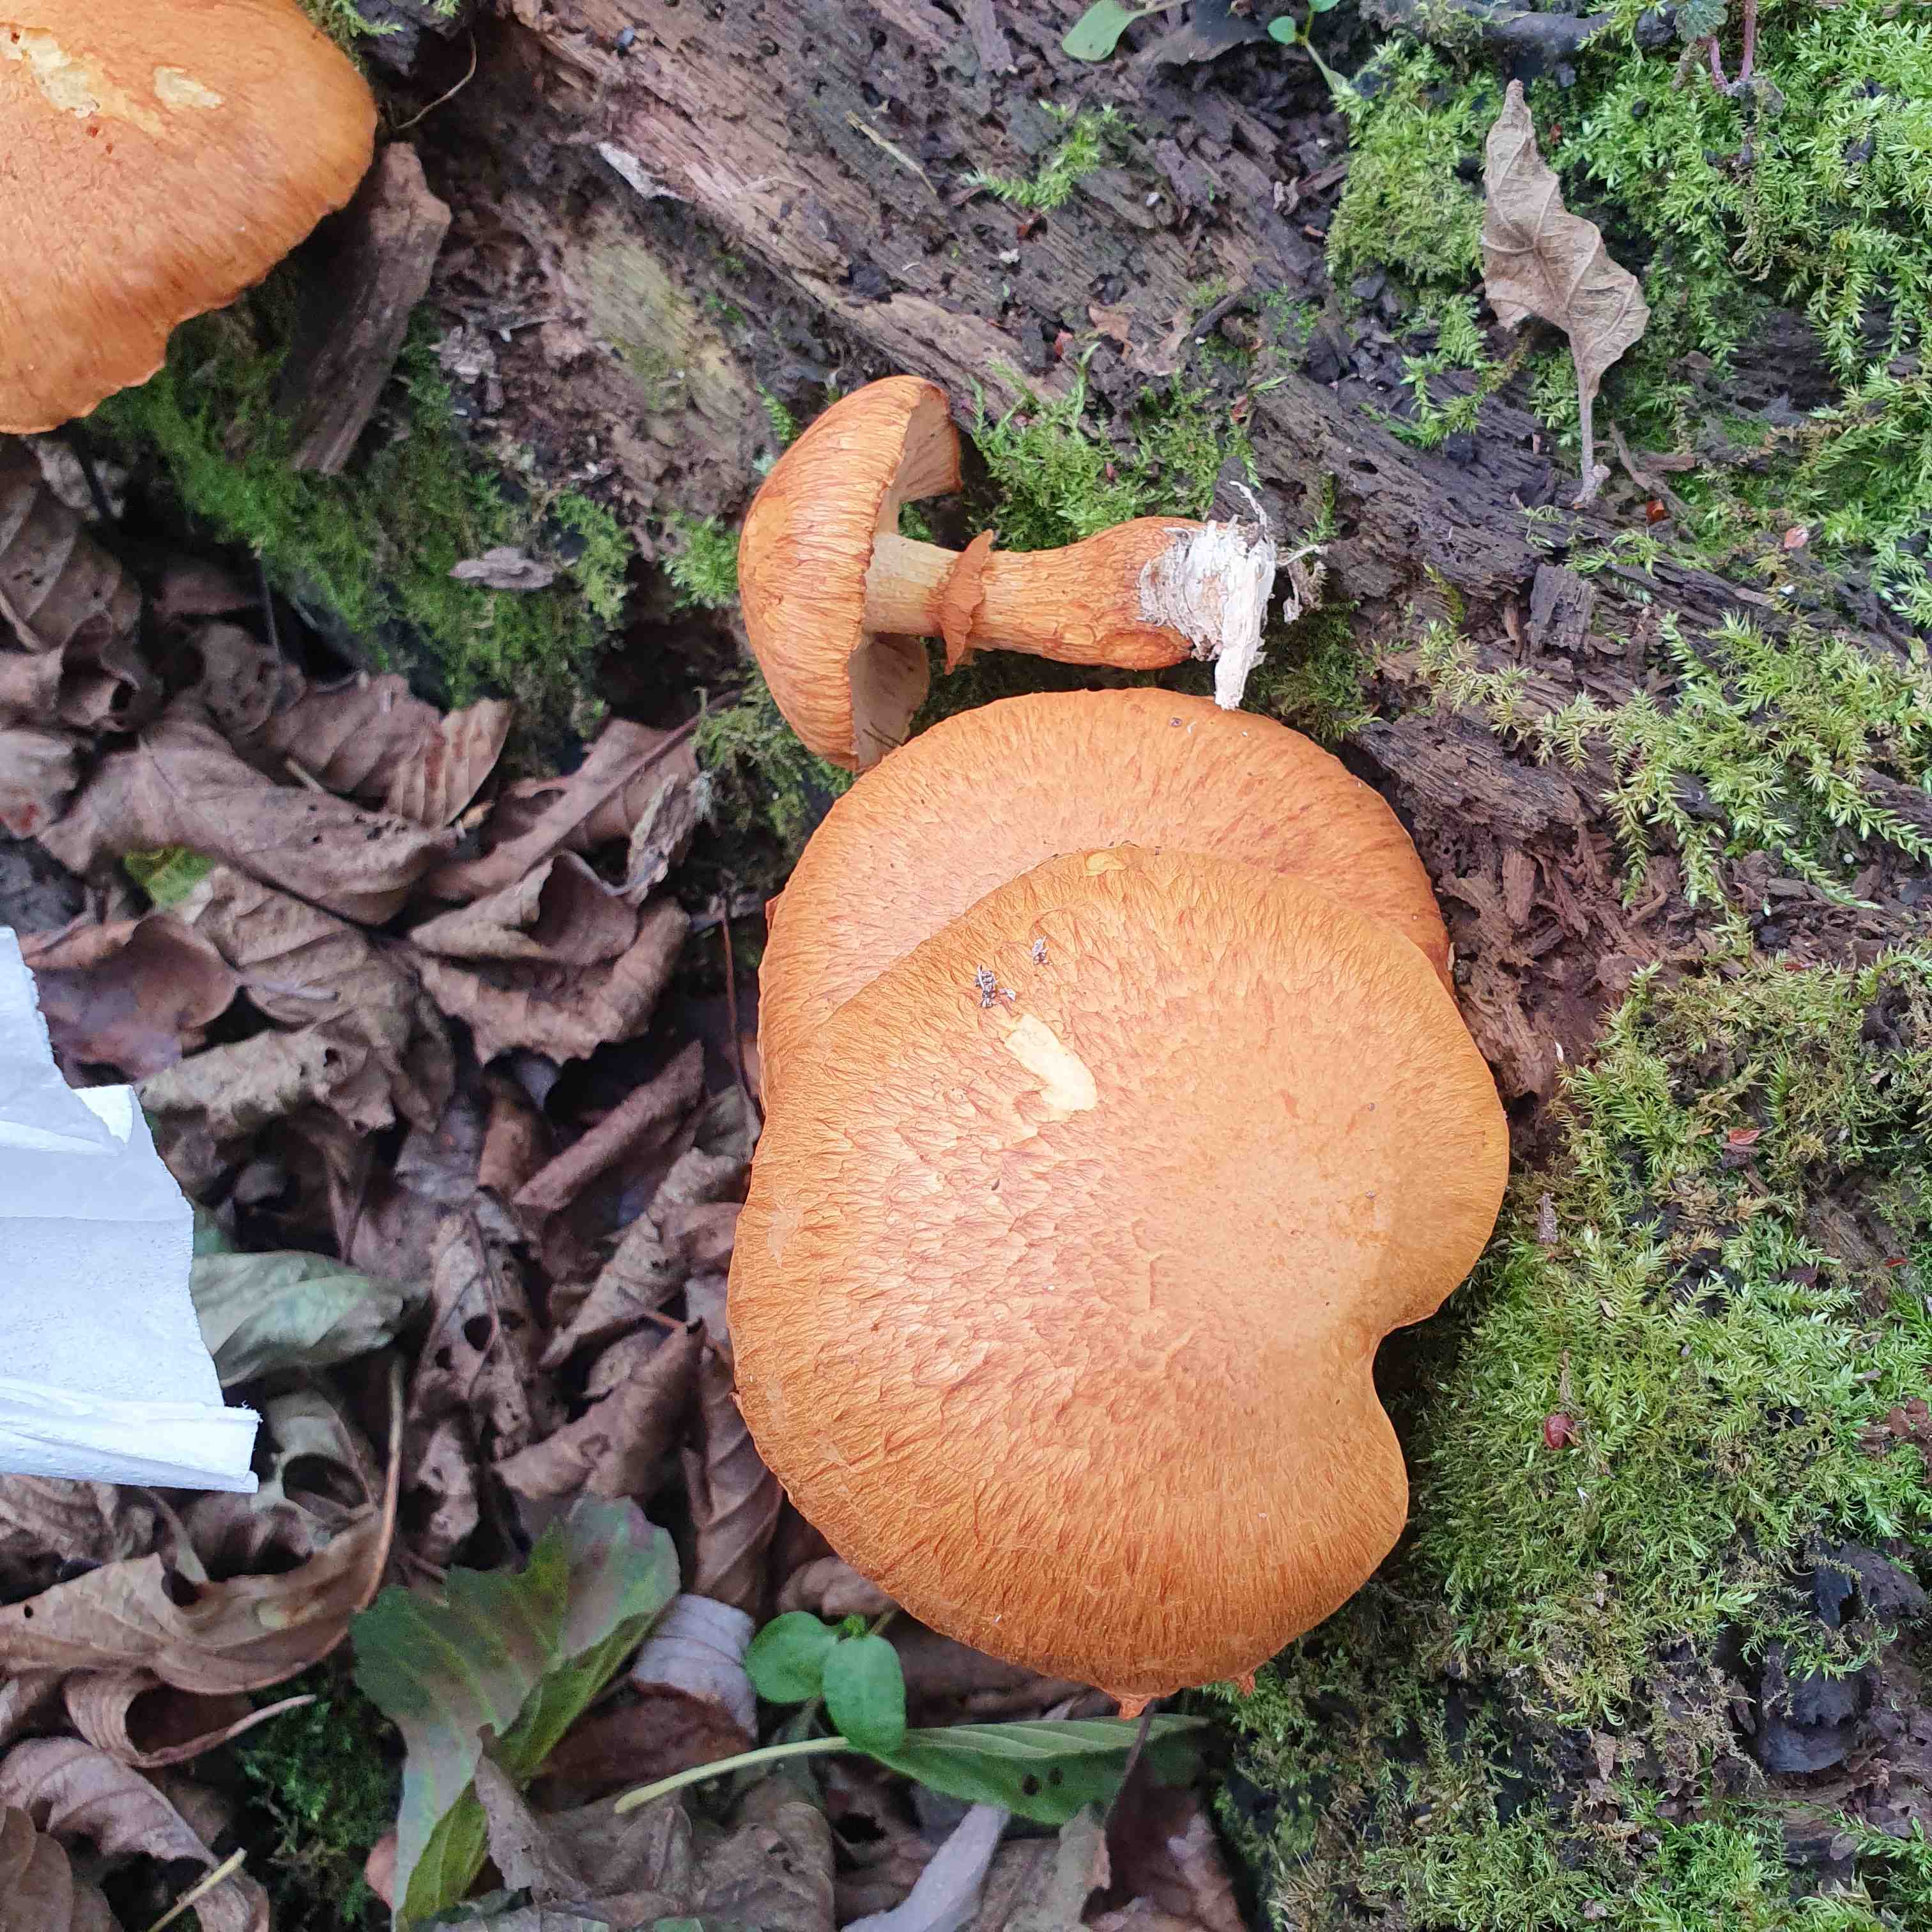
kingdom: Fungi
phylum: Basidiomycota
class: Agaricomycetes
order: Agaricales
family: Hymenogastraceae
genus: Gymnopilus
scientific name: Gymnopilus spectabilis
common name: fibret flammehat
